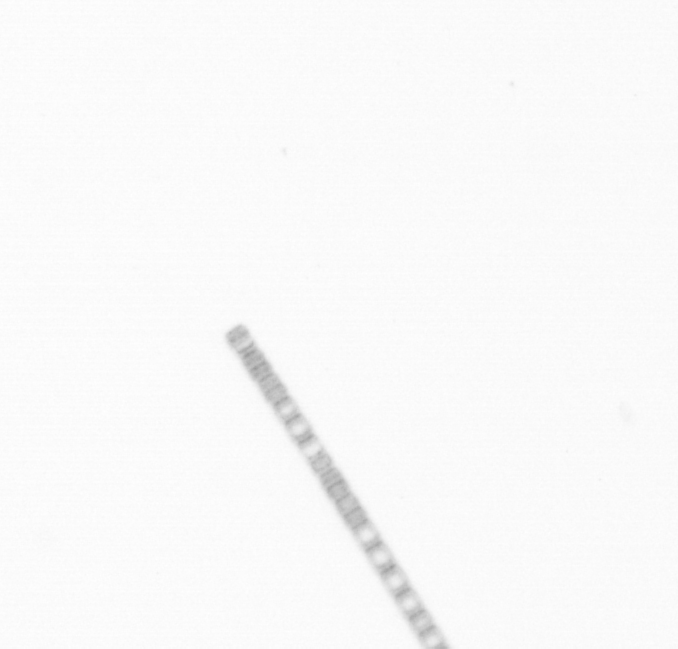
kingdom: Chromista
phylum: Ochrophyta
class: Bacillariophyceae
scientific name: Bacillariophyceae
